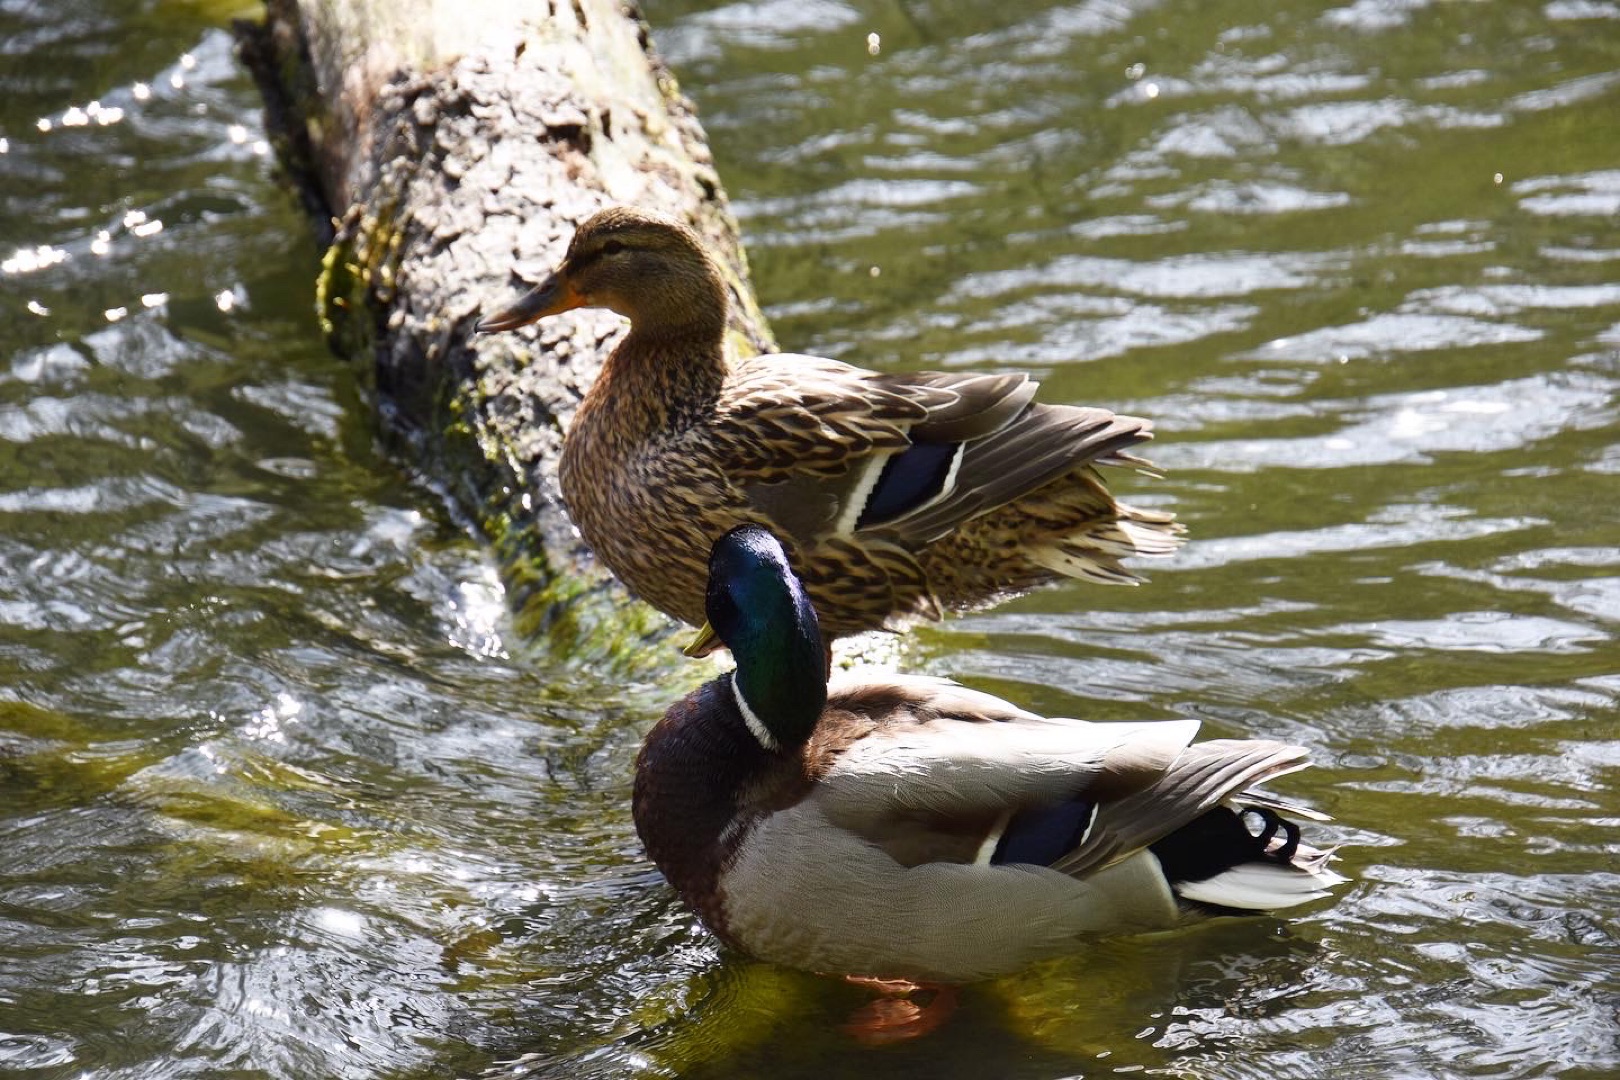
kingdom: Animalia
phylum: Chordata
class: Aves
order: Anseriformes
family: Anatidae
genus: Anas
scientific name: Anas platyrhynchos
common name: Gråand
